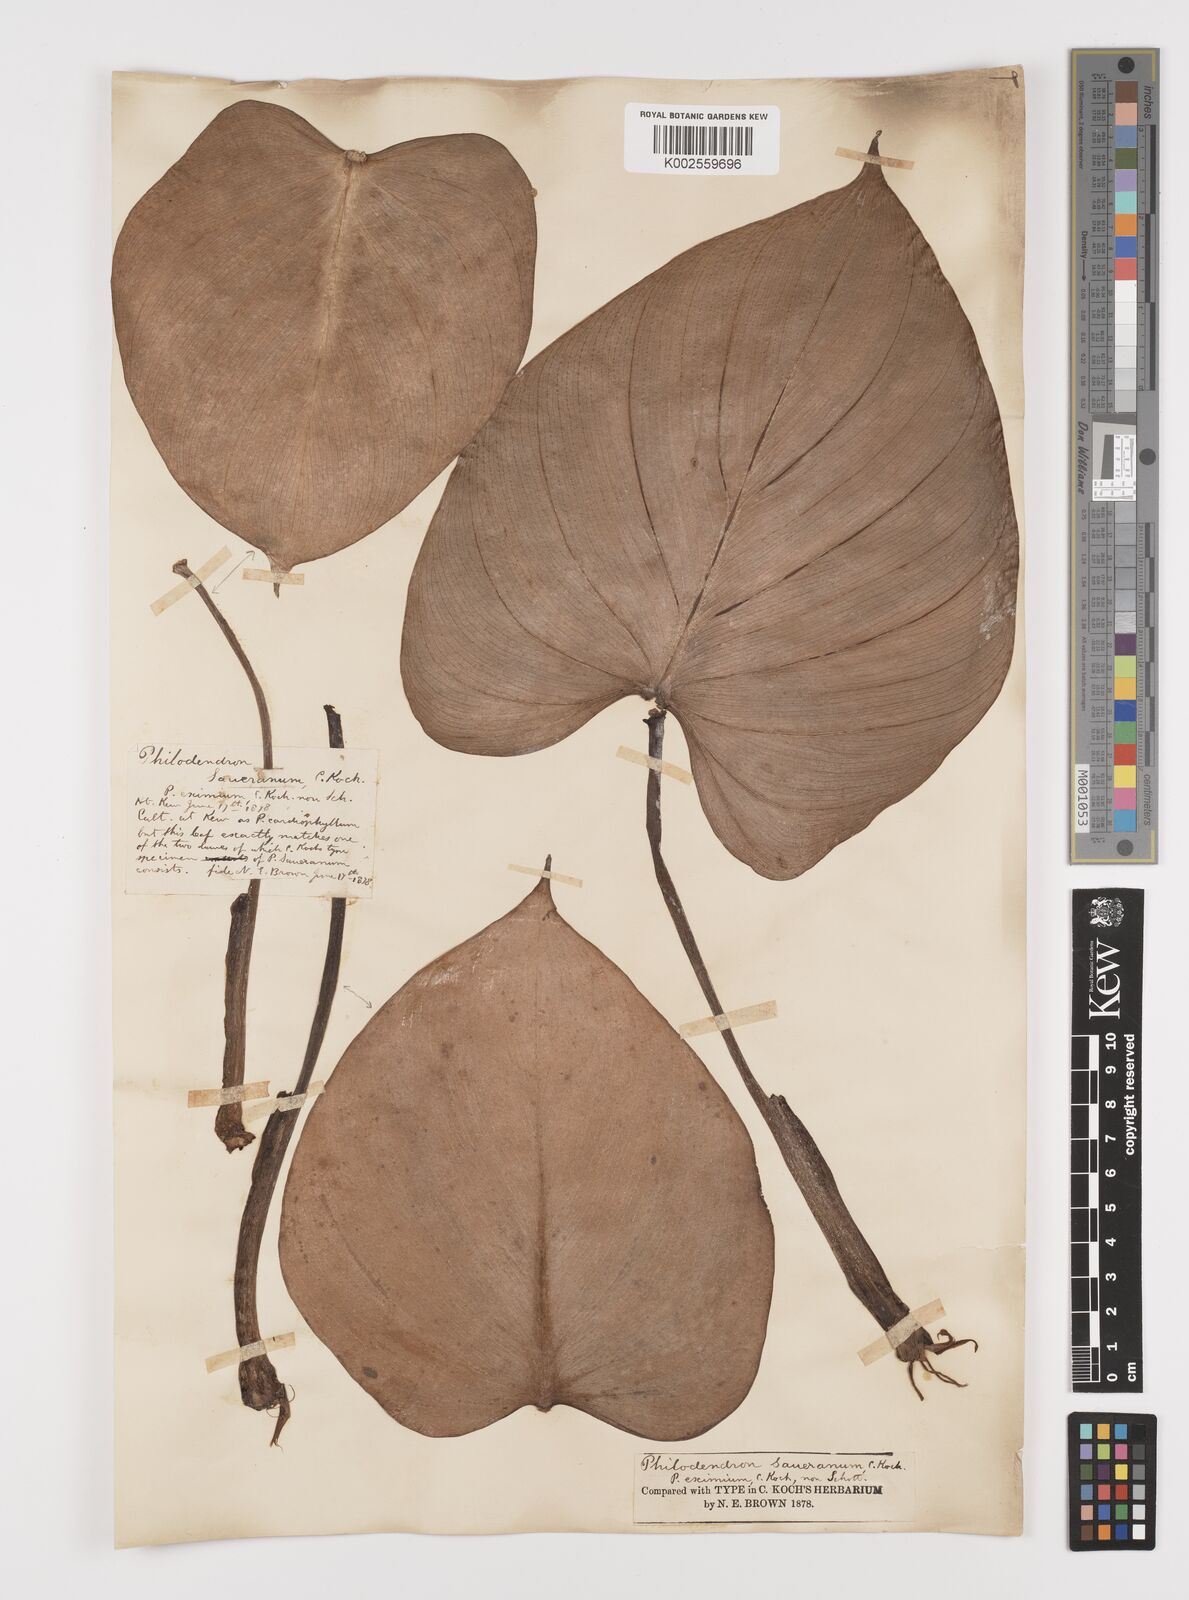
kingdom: Plantae
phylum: Tracheophyta
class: Liliopsida
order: Alismatales
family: Araceae
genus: Philodendron
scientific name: Philodendron eximium
